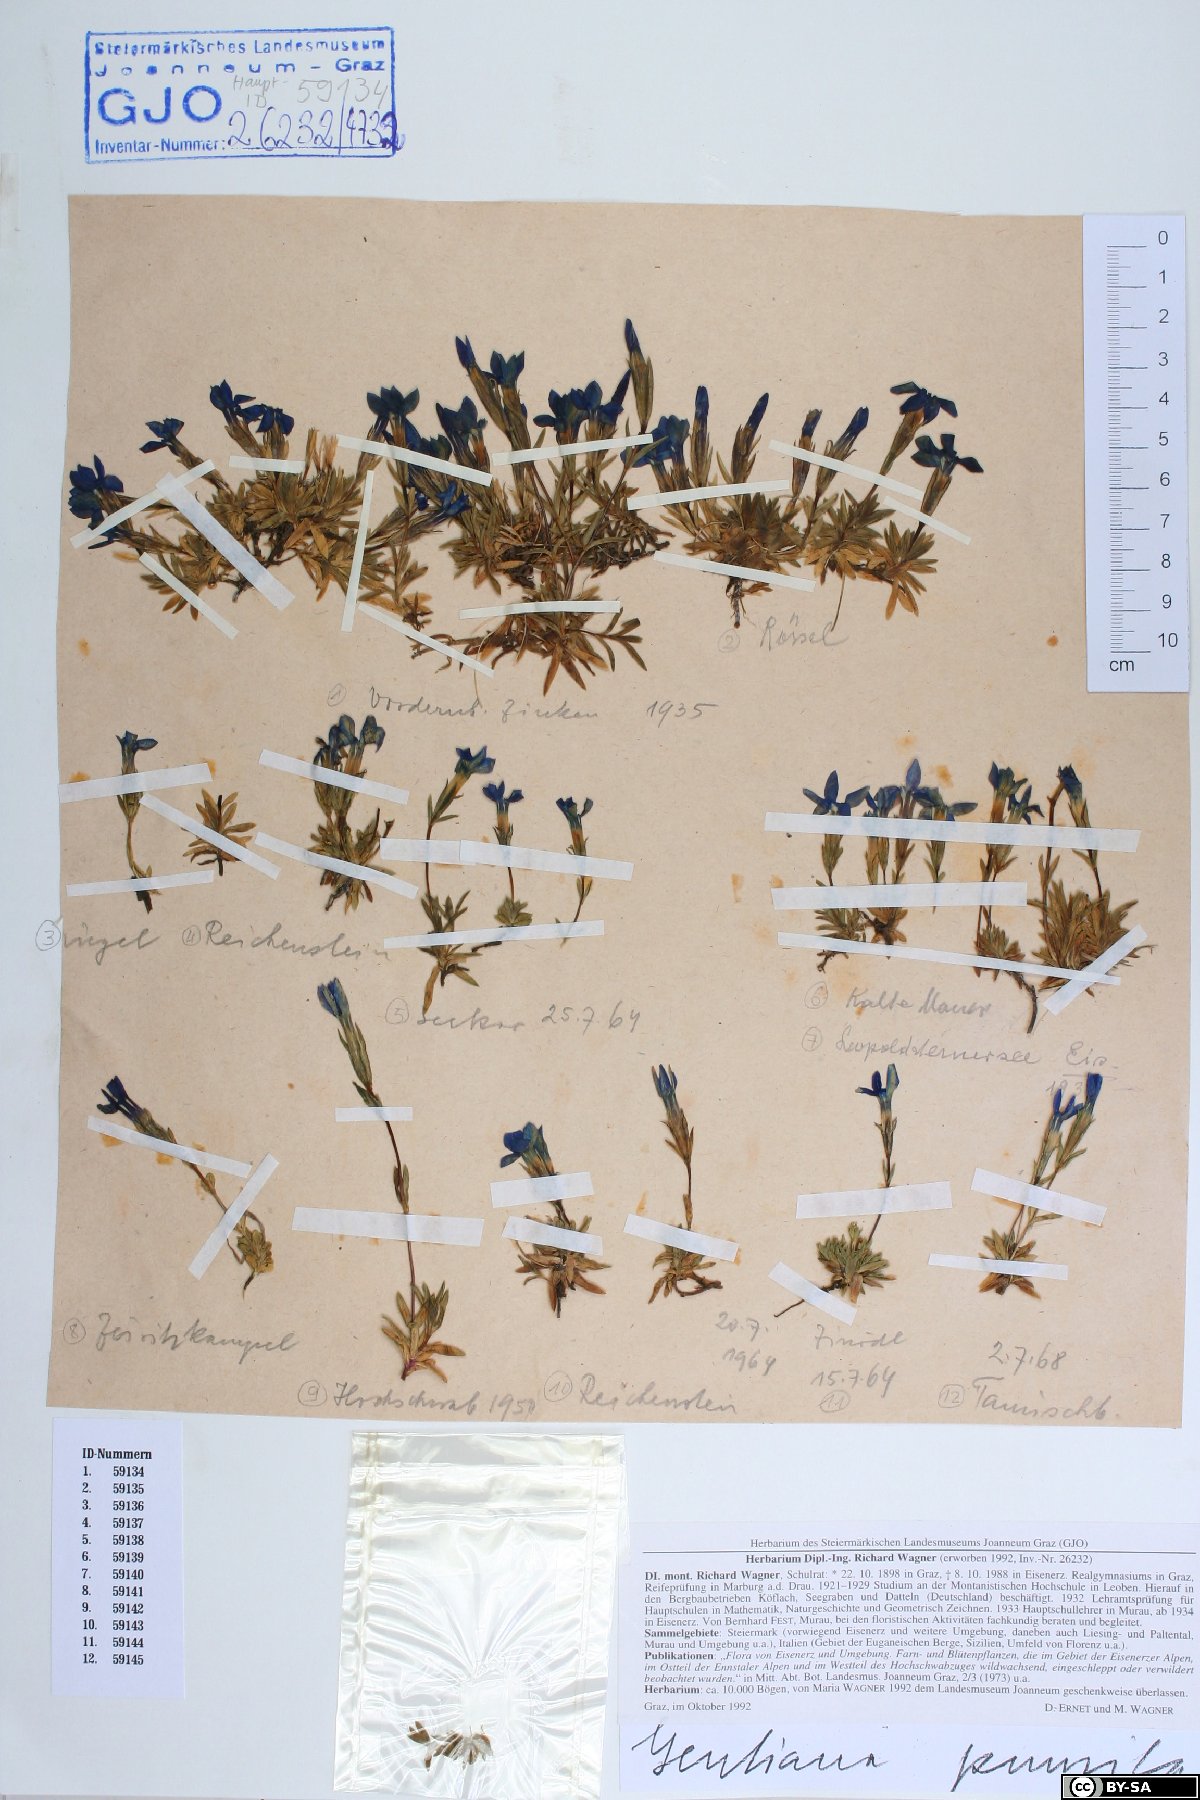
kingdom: Plantae
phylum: Tracheophyta
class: Magnoliopsida
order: Gentianales
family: Gentianaceae
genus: Gentiana
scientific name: Gentiana pumila
